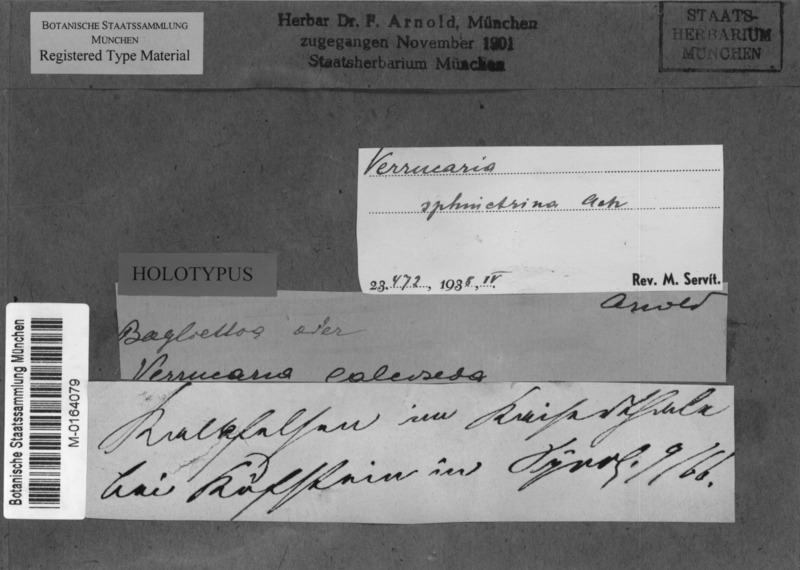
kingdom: Fungi
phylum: Ascomycota
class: Eurotiomycetes
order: Verrucariales
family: Verrucariaceae
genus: Bagliettoa
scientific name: Bagliettoa sphinctrina
